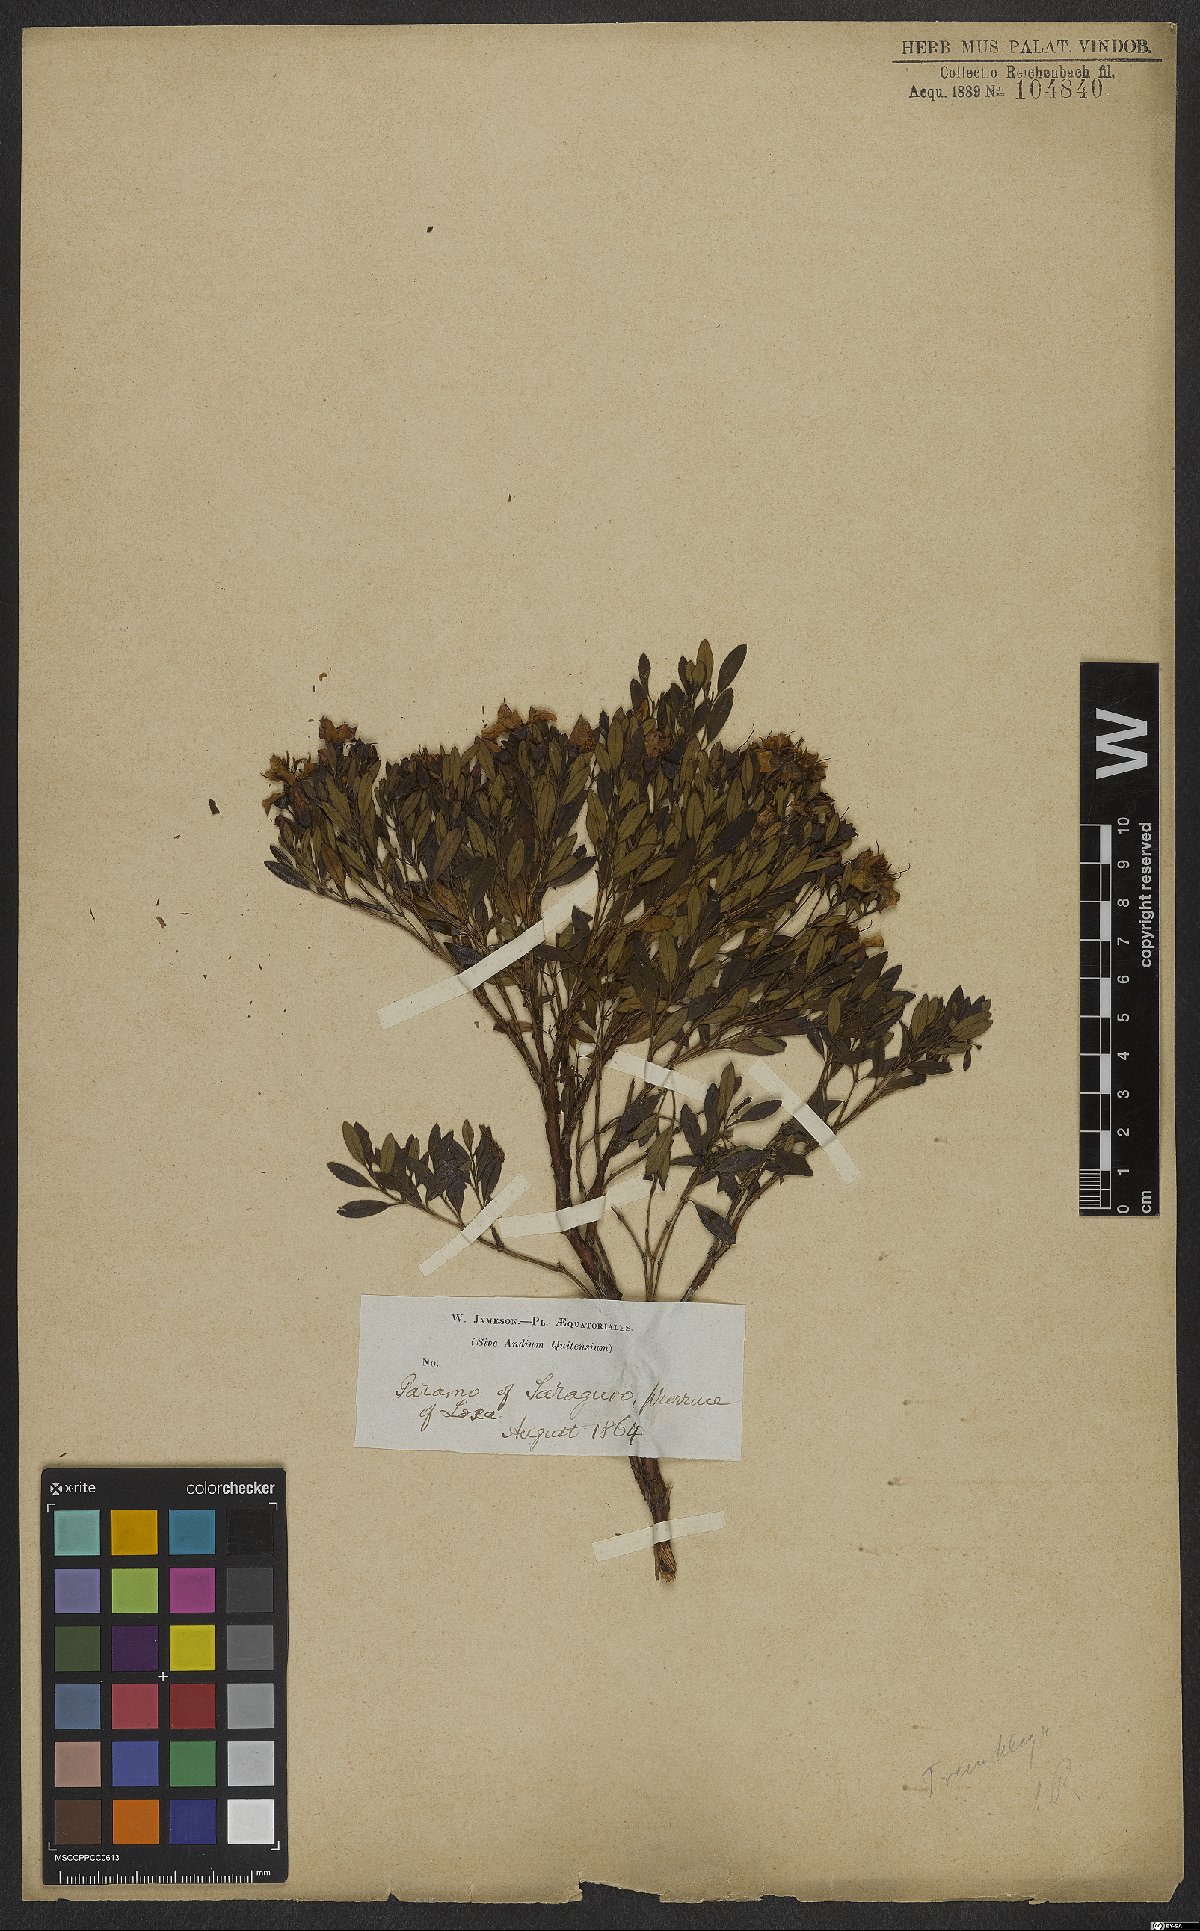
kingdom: Plantae
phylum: Tracheophyta
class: Magnoliopsida
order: Myrtales
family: Melastomataceae
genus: Microlicia
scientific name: Microlicia
